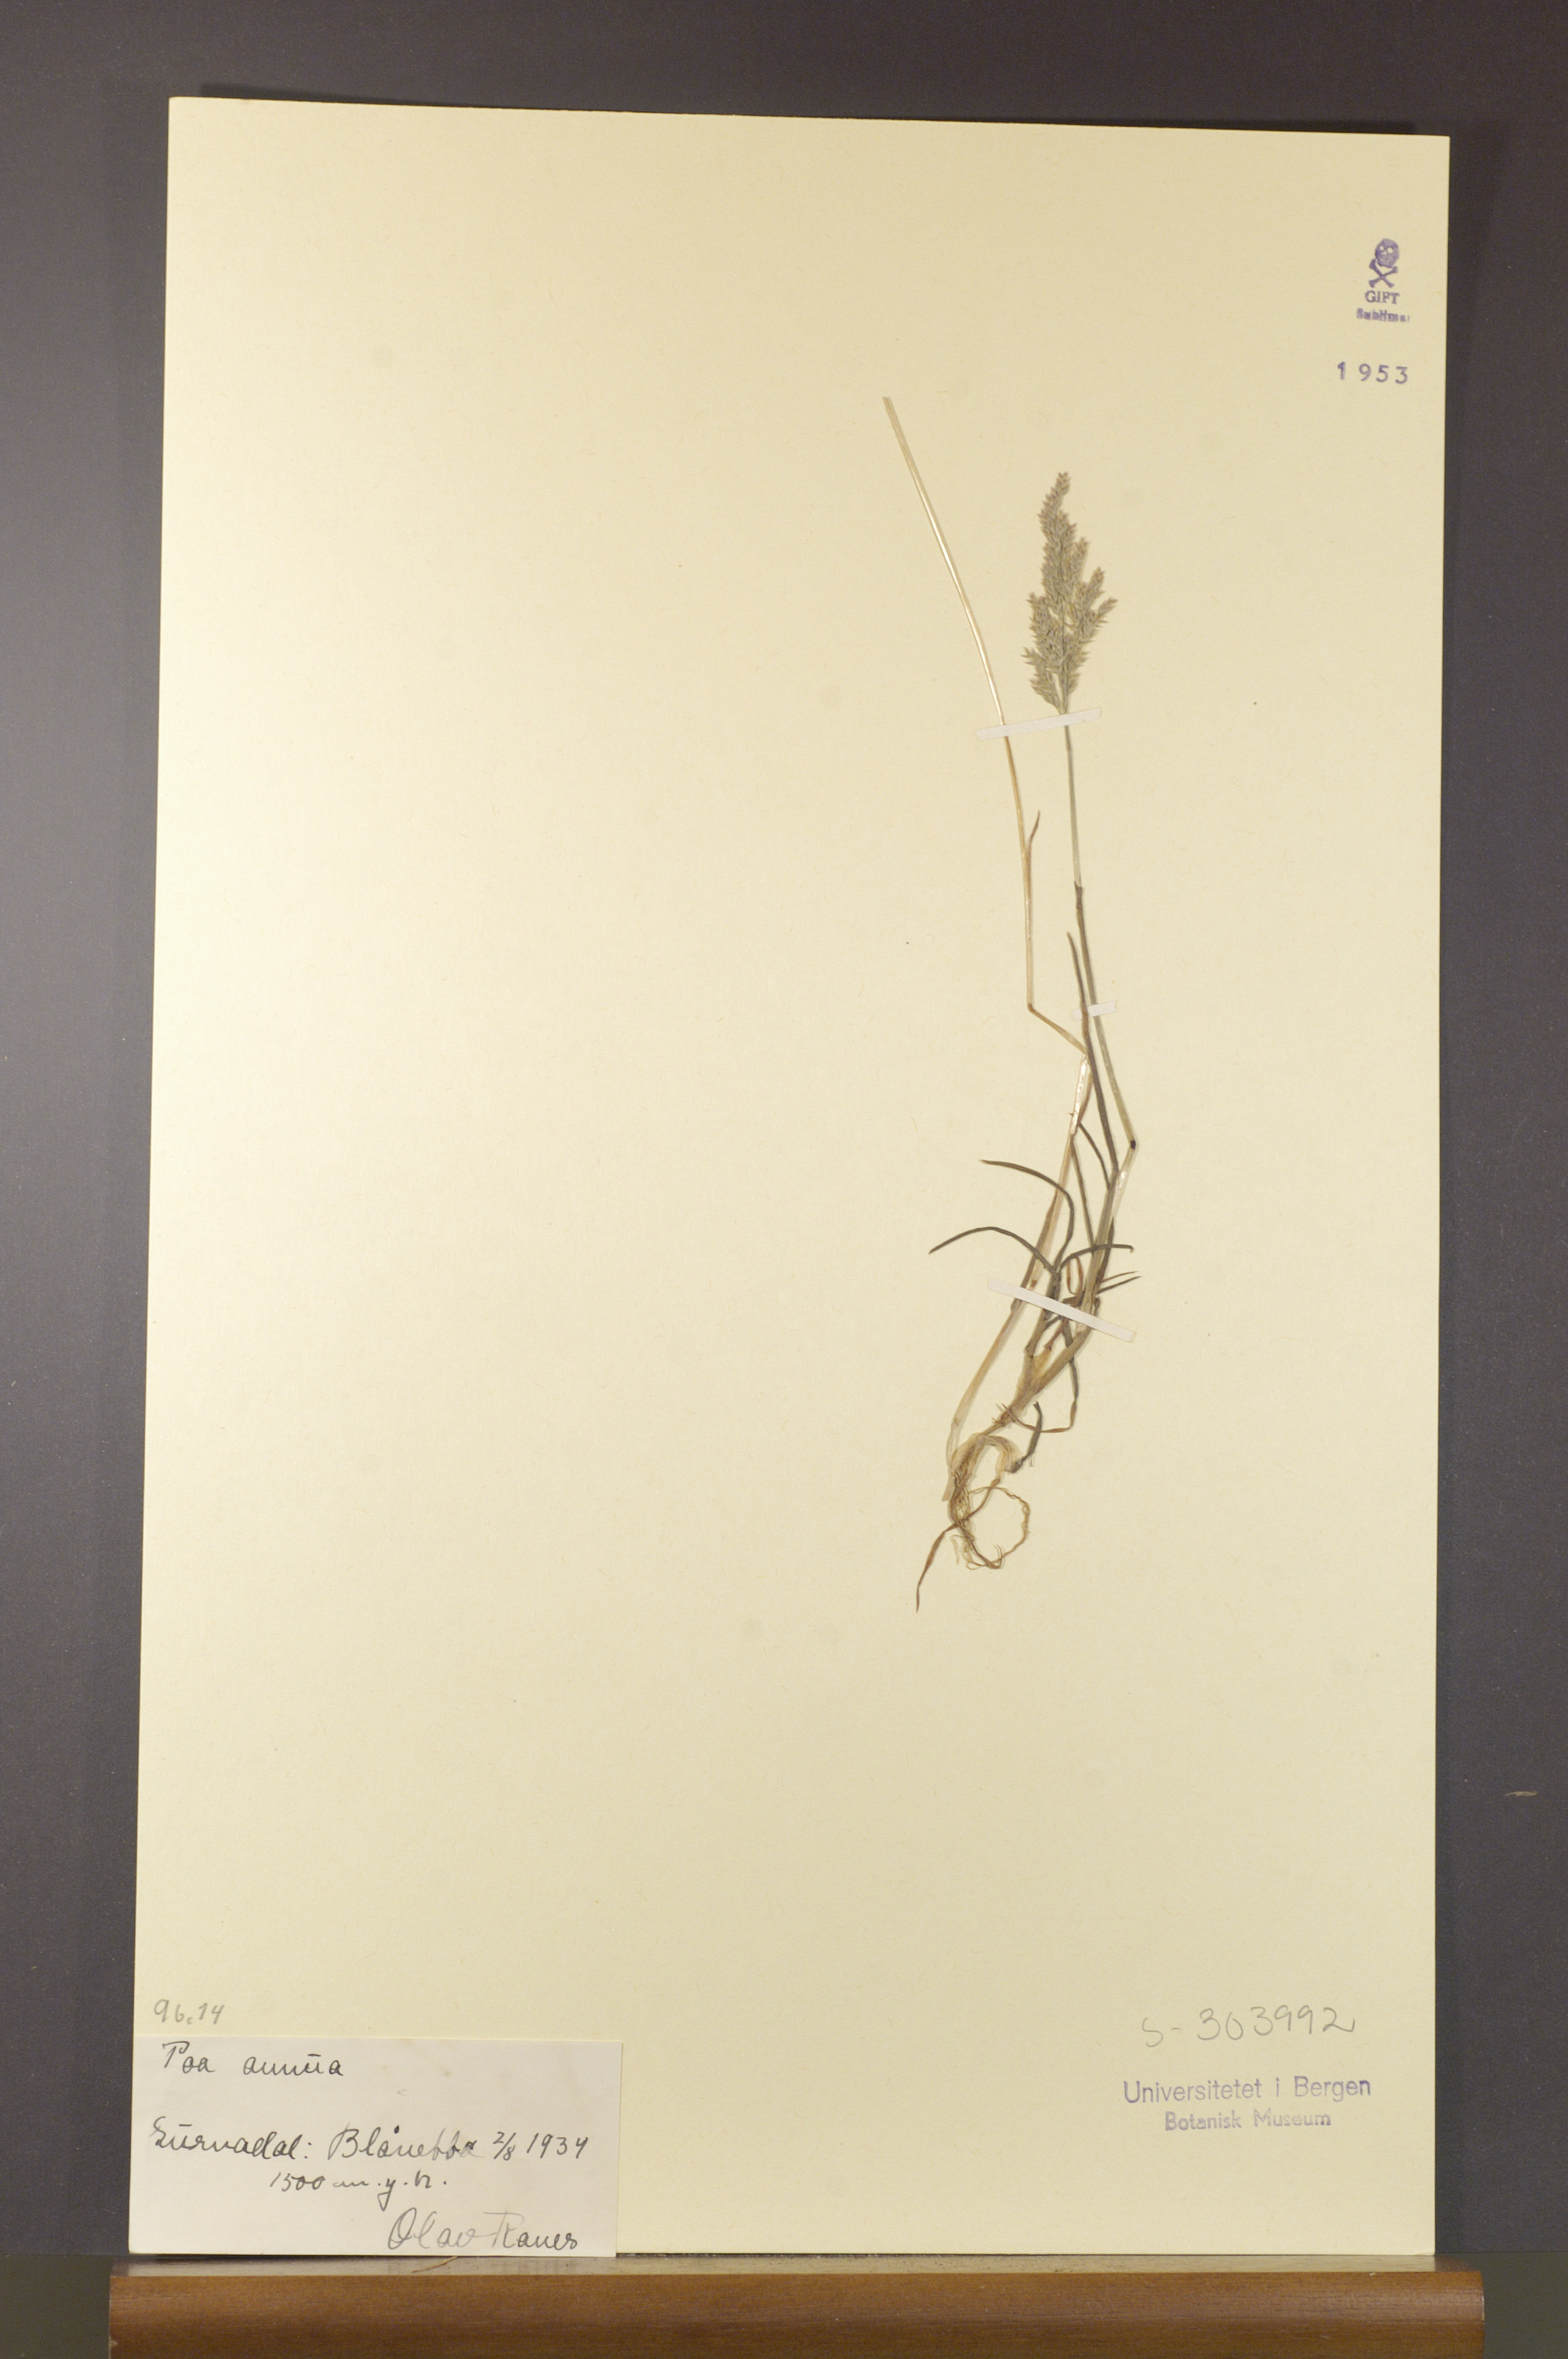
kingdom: Plantae
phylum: Tracheophyta
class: Liliopsida
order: Poales
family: Poaceae
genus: Poa
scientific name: Poa annua
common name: Annual bluegrass
